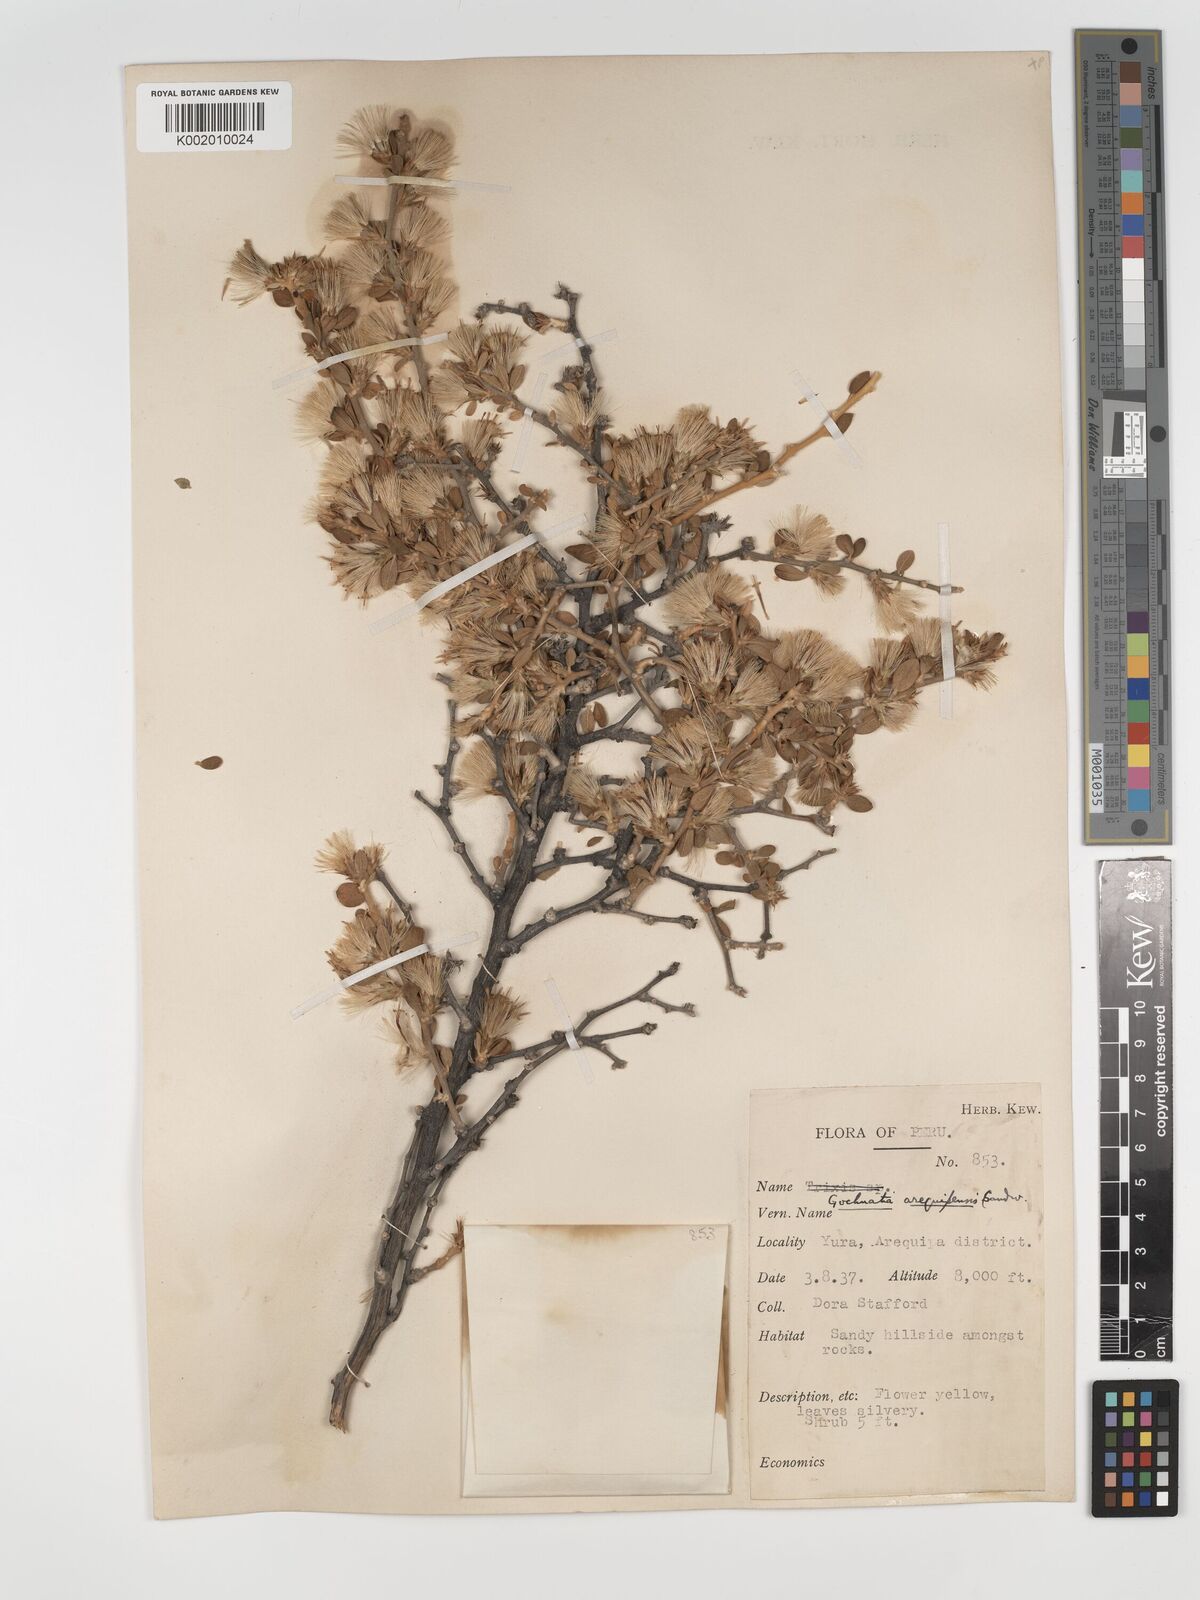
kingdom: Plantae
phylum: Tracheophyta
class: Magnoliopsida
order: Asterales
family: Asteraceae
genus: Gochnatia
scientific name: Gochnatia arequipensis
